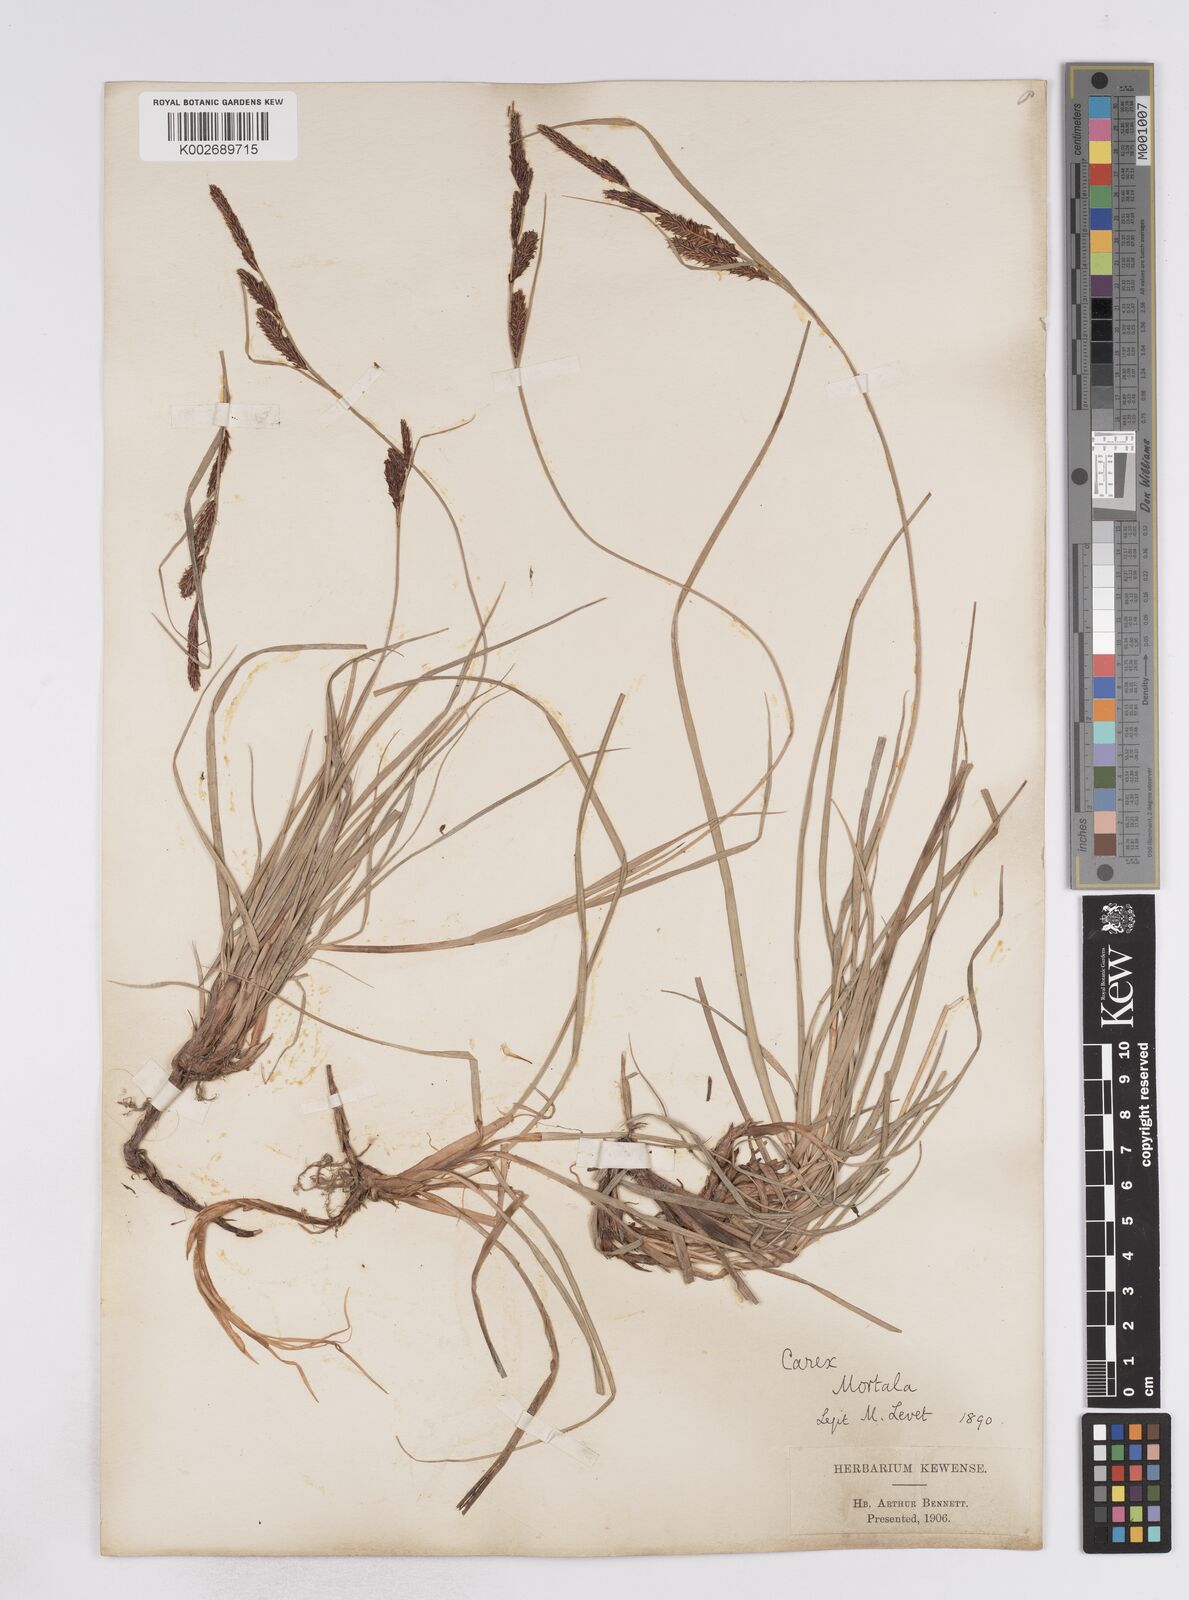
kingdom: Plantae
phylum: Tracheophyta
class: Liliopsida
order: Poales
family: Cyperaceae
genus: Carex
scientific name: Carex flacca
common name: Glaucous sedge
